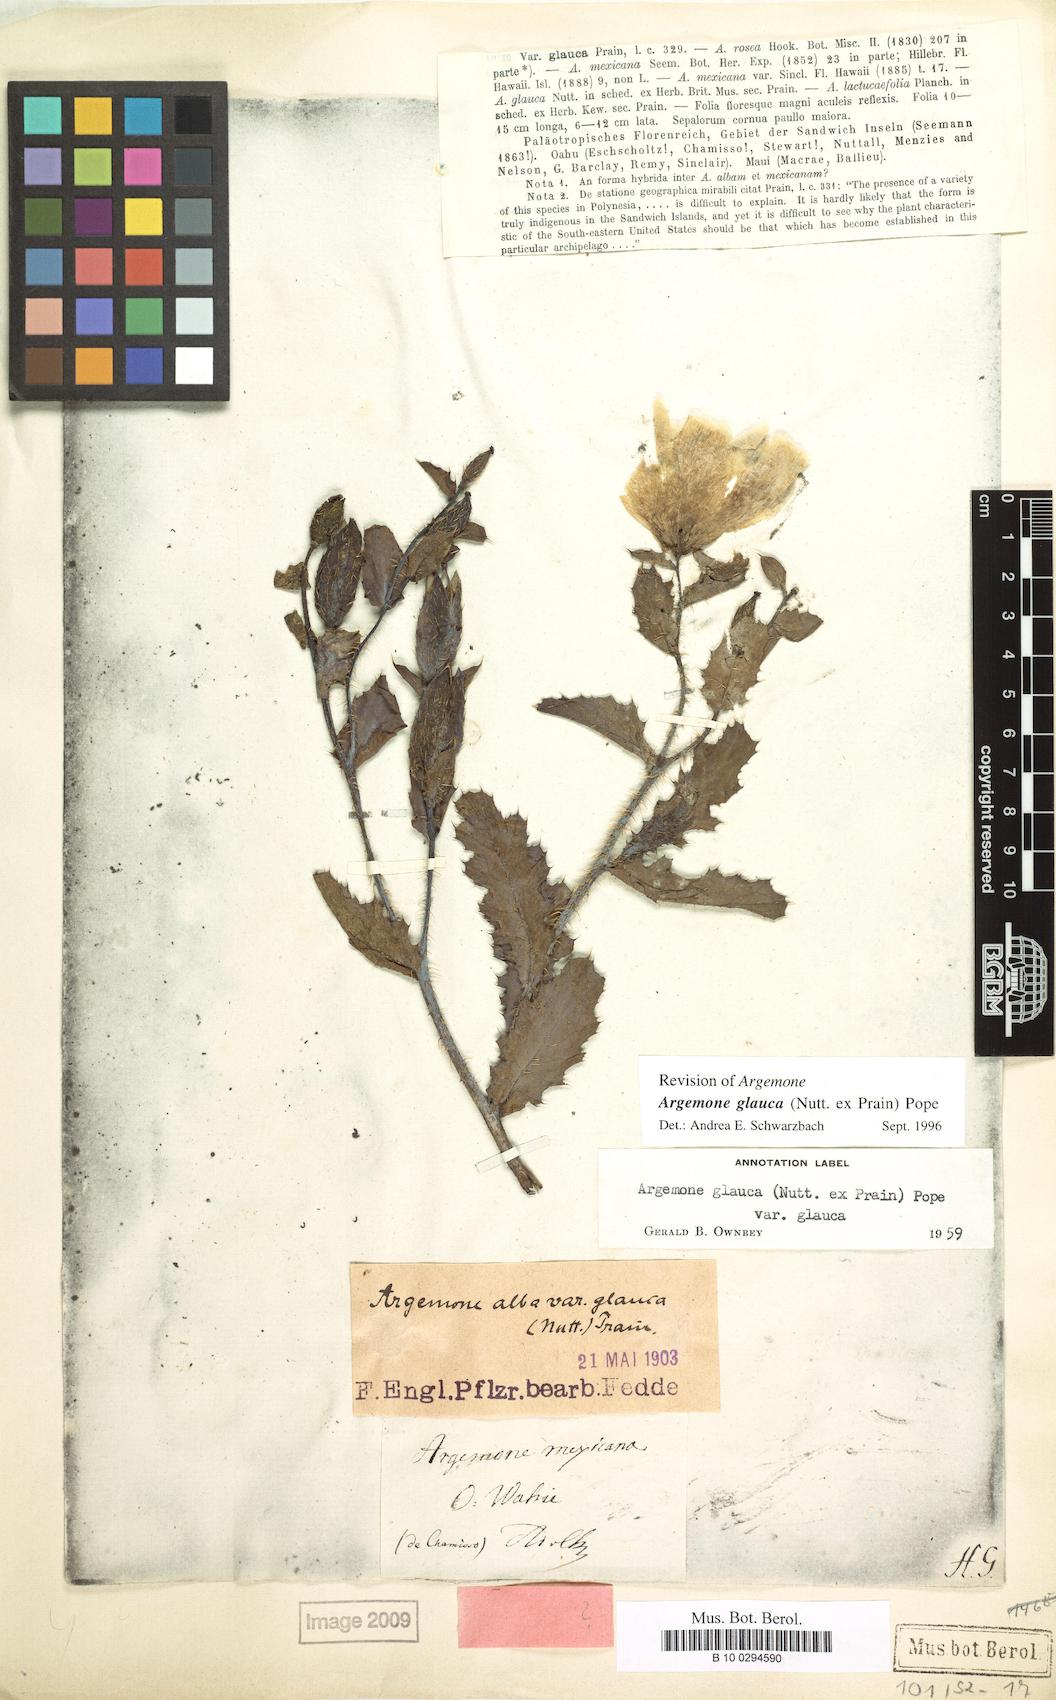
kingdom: Plantae
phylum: Tracheophyta
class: Magnoliopsida
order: Ranunculales
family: Papaveraceae
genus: Argemone
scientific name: Argemone glauca
